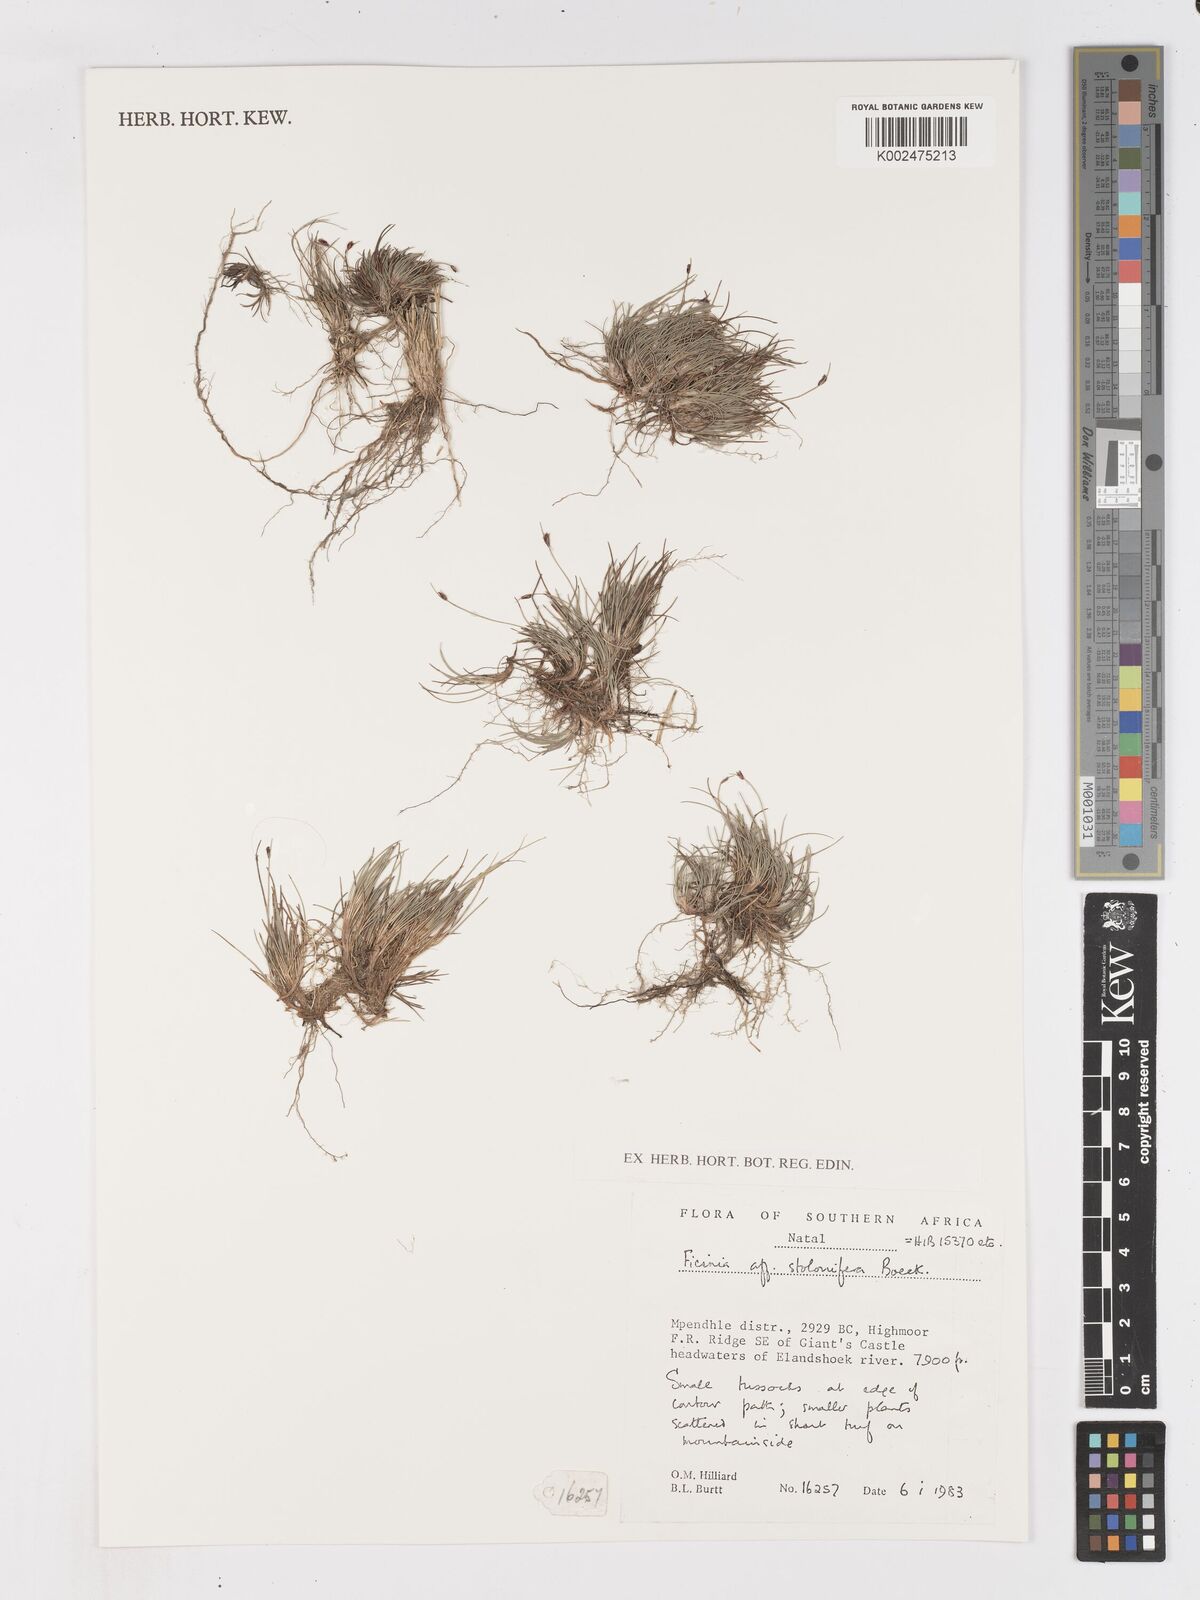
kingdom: Plantae
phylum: Tracheophyta
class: Liliopsida
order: Poales
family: Cyperaceae
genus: Ficinia
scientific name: Ficinia
